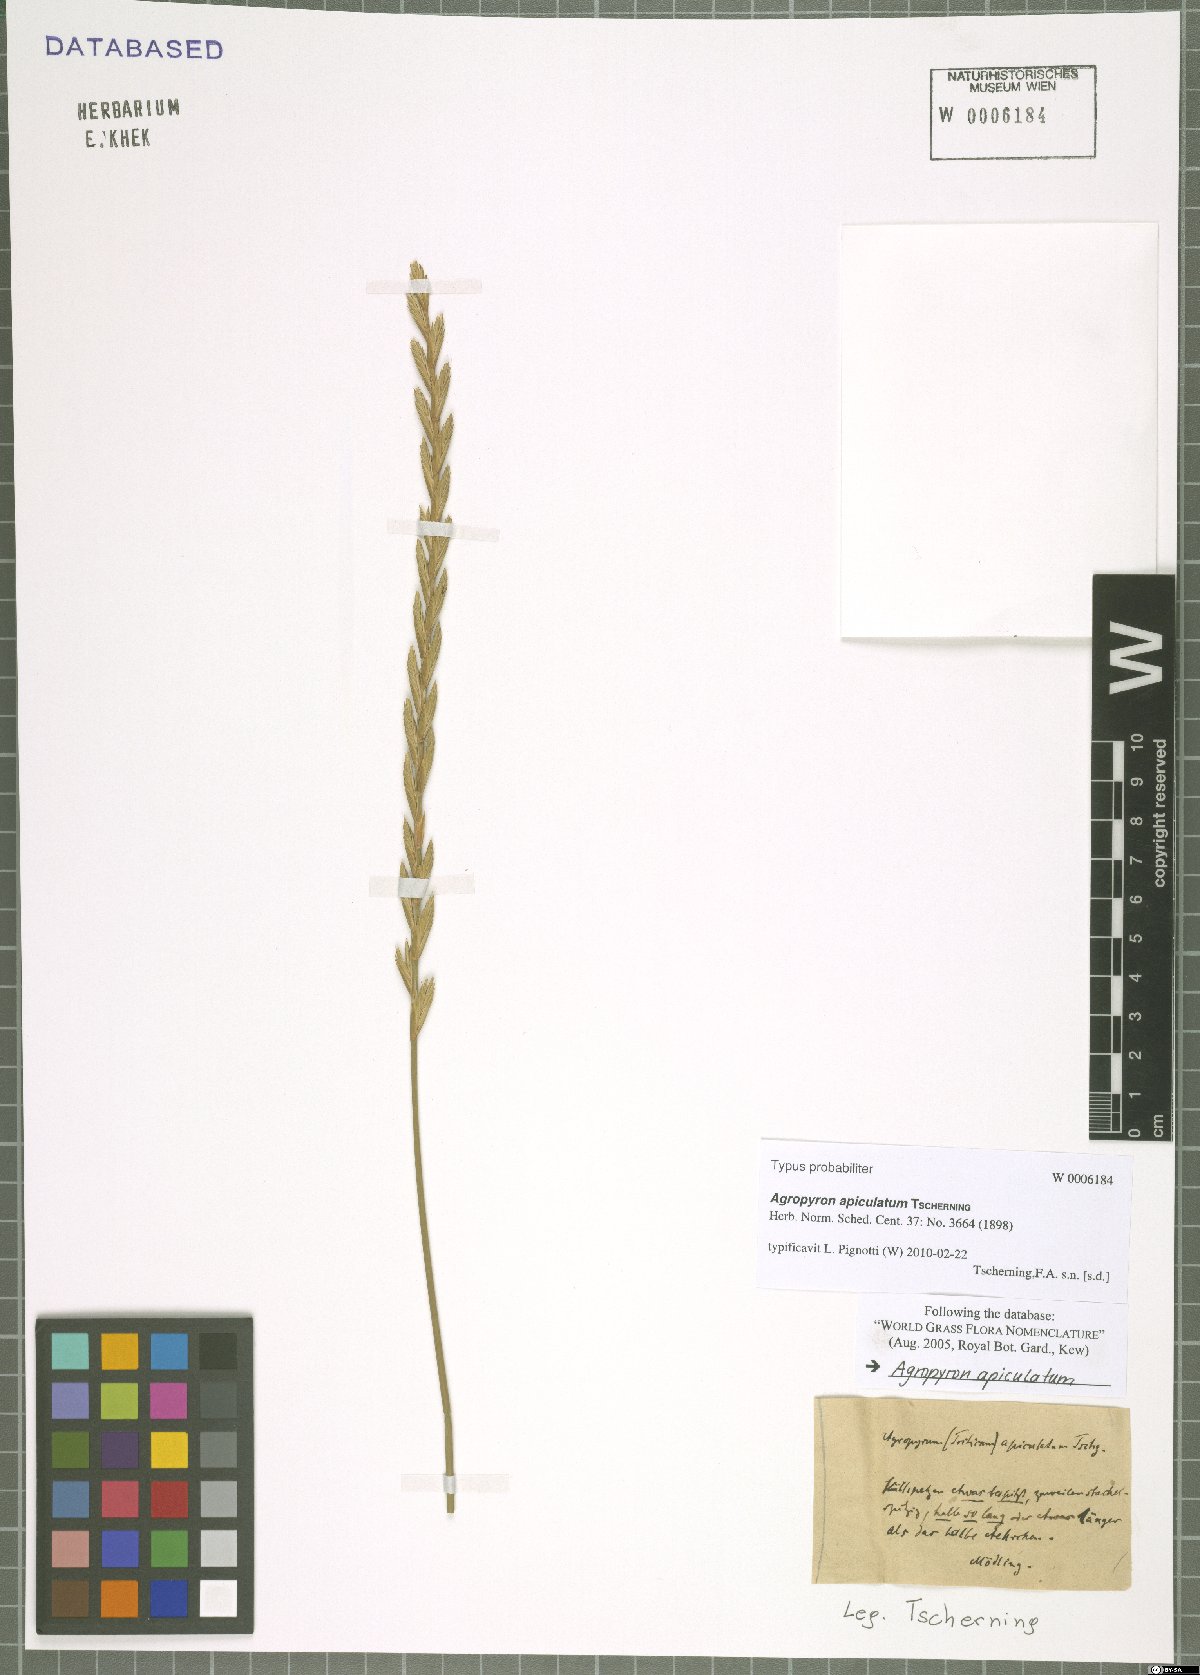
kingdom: Plantae
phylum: Tracheophyta
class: Liliopsida
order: Poales
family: Poaceae
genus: Elymus
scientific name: Elymus apiculatus
